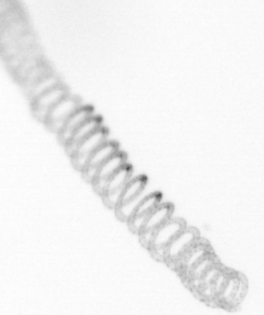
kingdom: Chromista
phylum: Ochrophyta
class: Bacillariophyceae
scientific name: Bacillariophyceae
